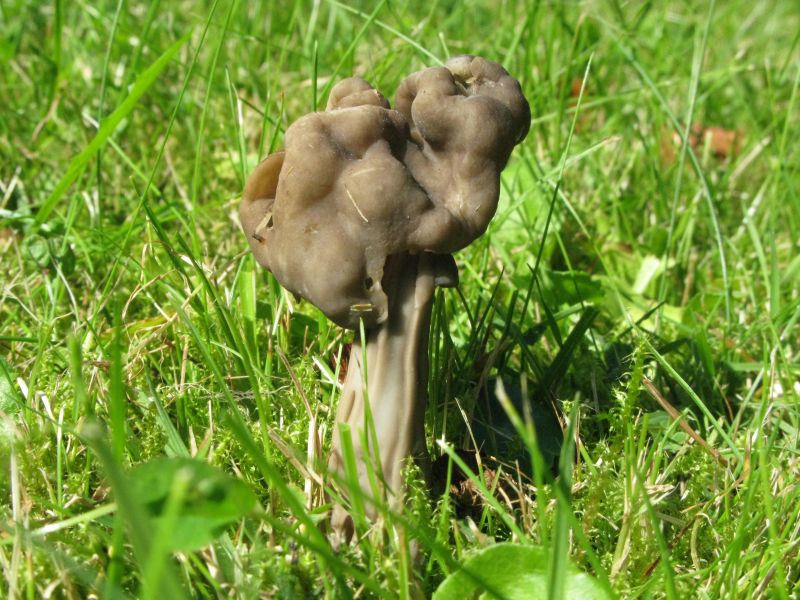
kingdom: Fungi
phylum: Ascomycota
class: Pezizomycetes
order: Pezizales
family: Helvellaceae
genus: Helvella
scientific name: Helvella lacunosa
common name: grubet foldhat
